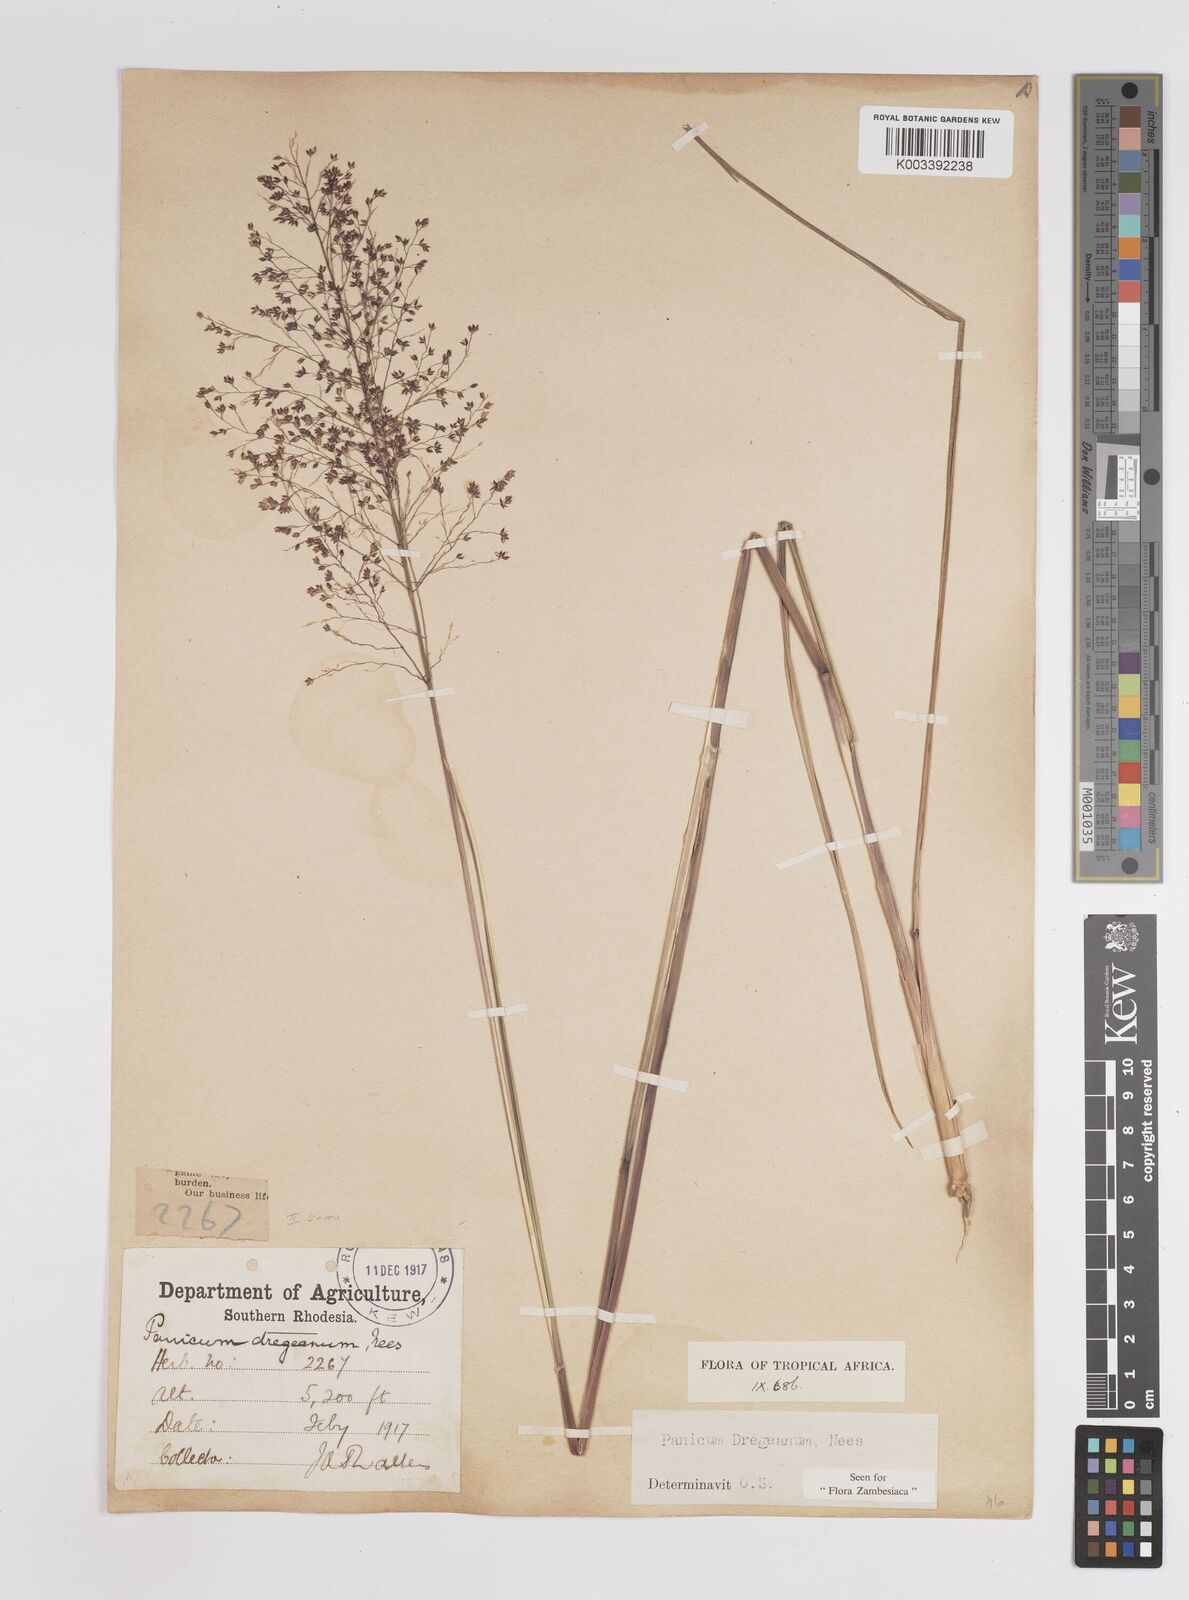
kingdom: Plantae
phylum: Tracheophyta
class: Liliopsida
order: Poales
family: Poaceae
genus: Panicum
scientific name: Panicum dregeanum
